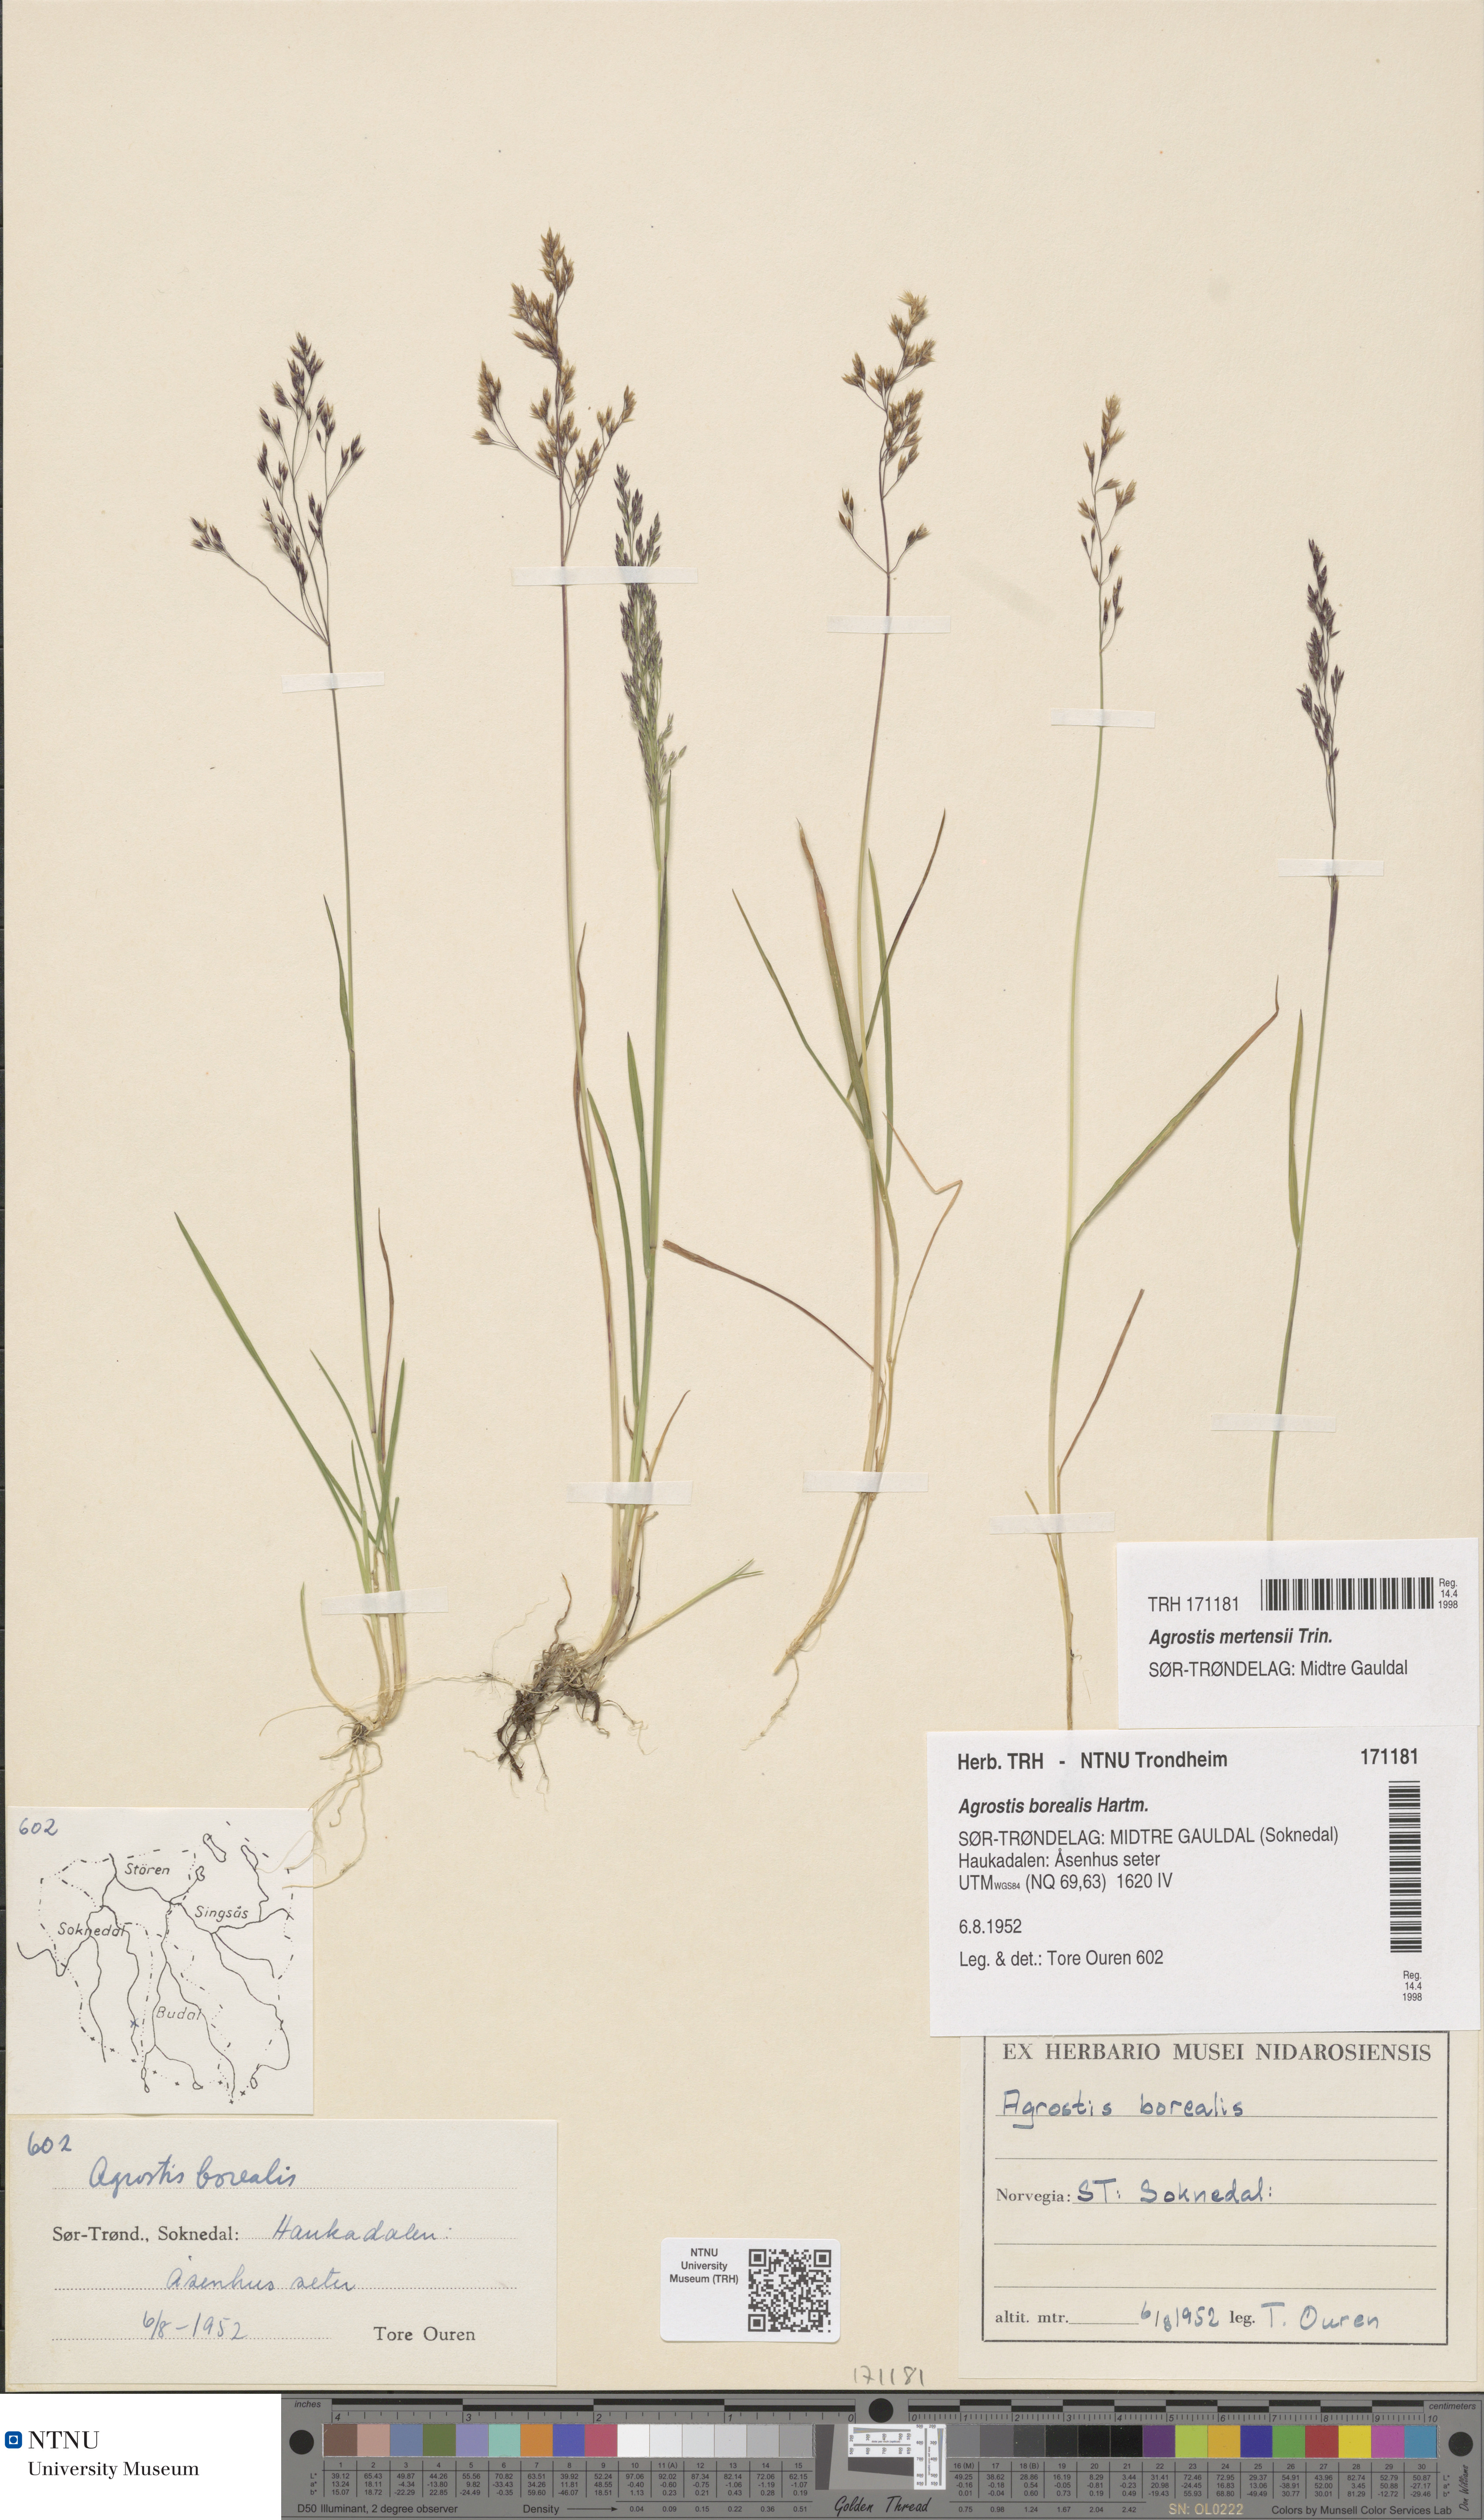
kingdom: Plantae
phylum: Tracheophyta
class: Liliopsida
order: Poales
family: Poaceae
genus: Agrostis
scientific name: Agrostis mertensii
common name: Northern bent
